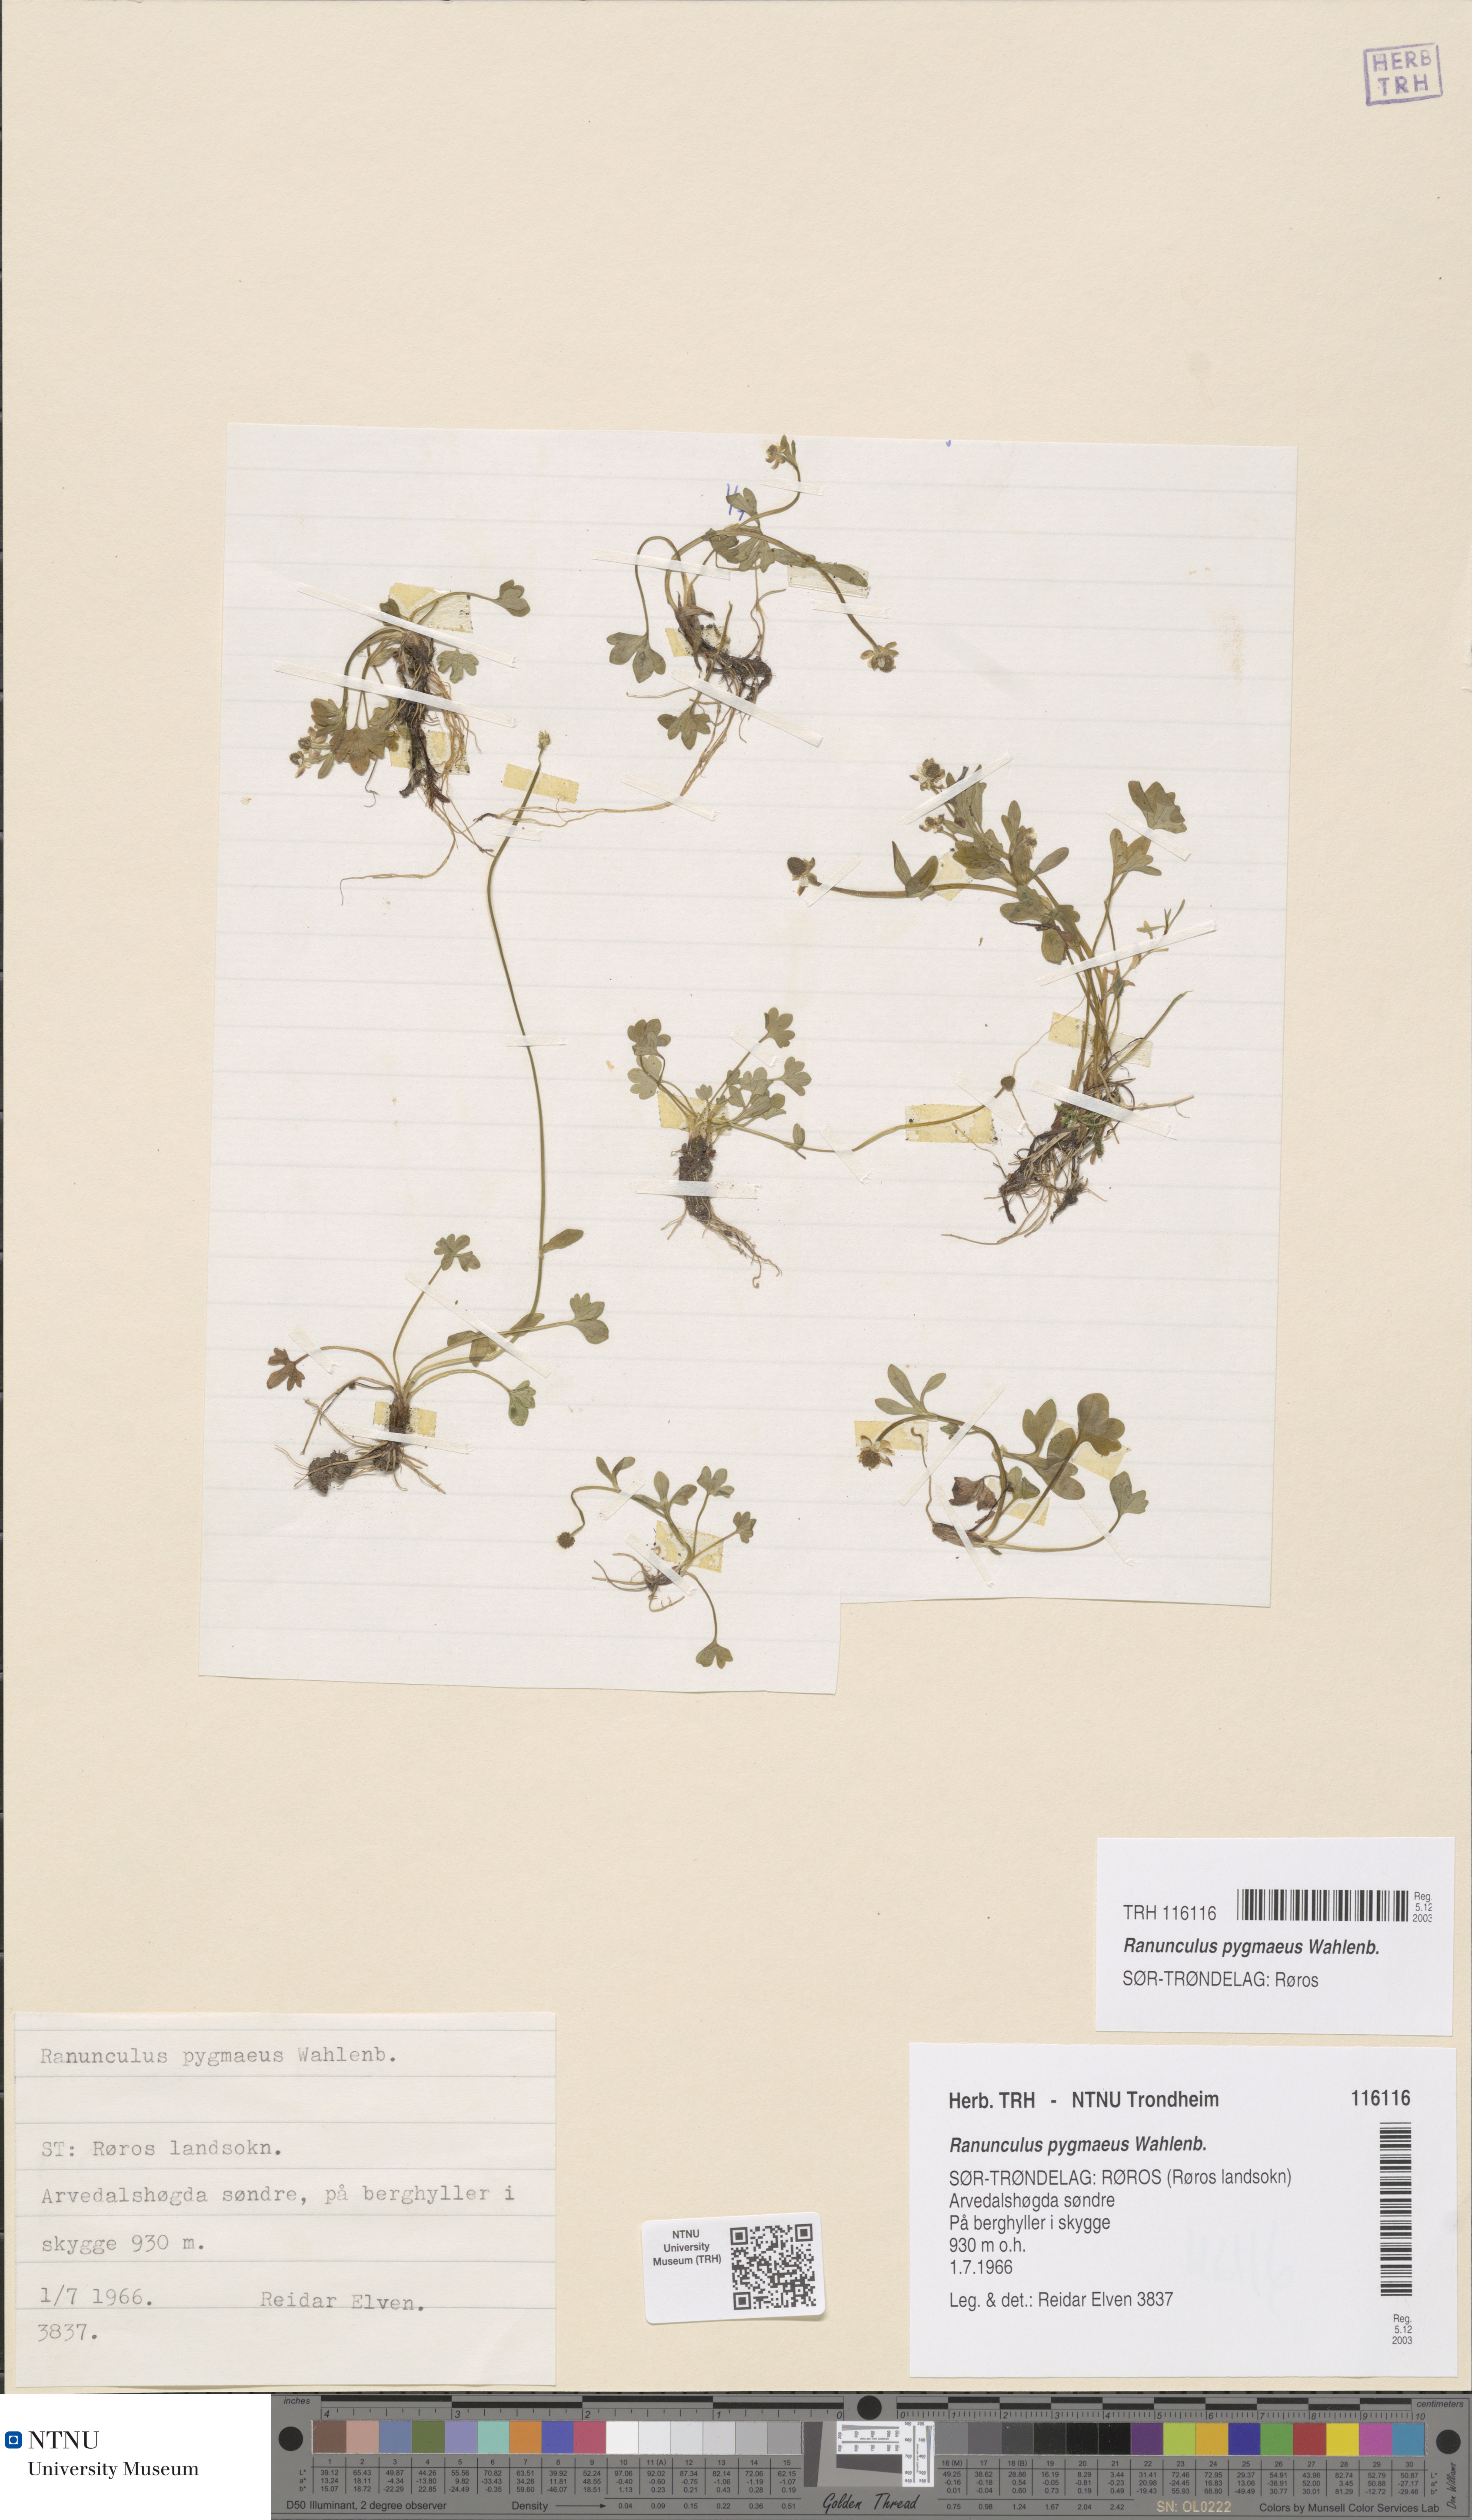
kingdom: Plantae
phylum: Tracheophyta
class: Magnoliopsida
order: Ranunculales
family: Ranunculaceae
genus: Ranunculus
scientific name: Ranunculus pygmaeus
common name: Dwarf buttercup
